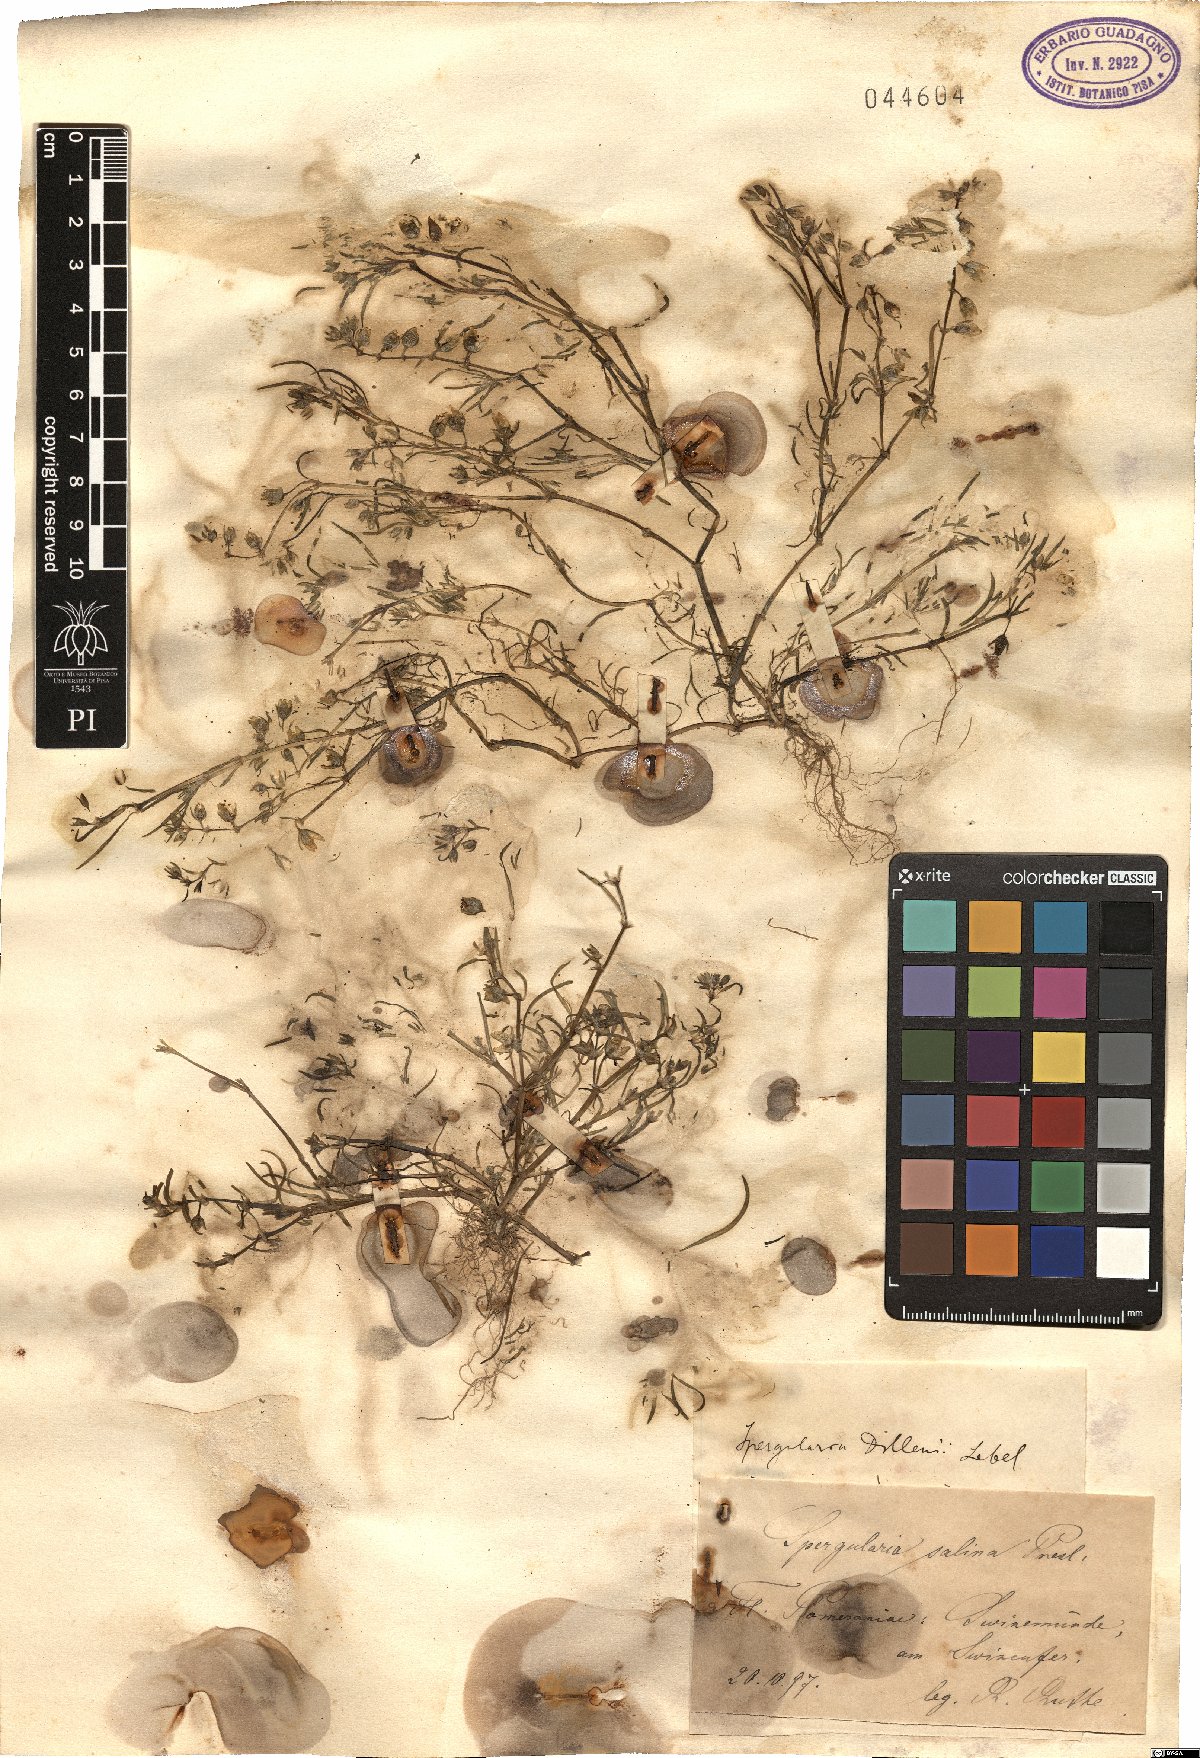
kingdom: Plantae
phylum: Tracheophyta
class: Magnoliopsida
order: Caryophyllales
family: Caryophyllaceae
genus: Spergularia
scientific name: Spergularia marina
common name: Lesser sea-spurrey
